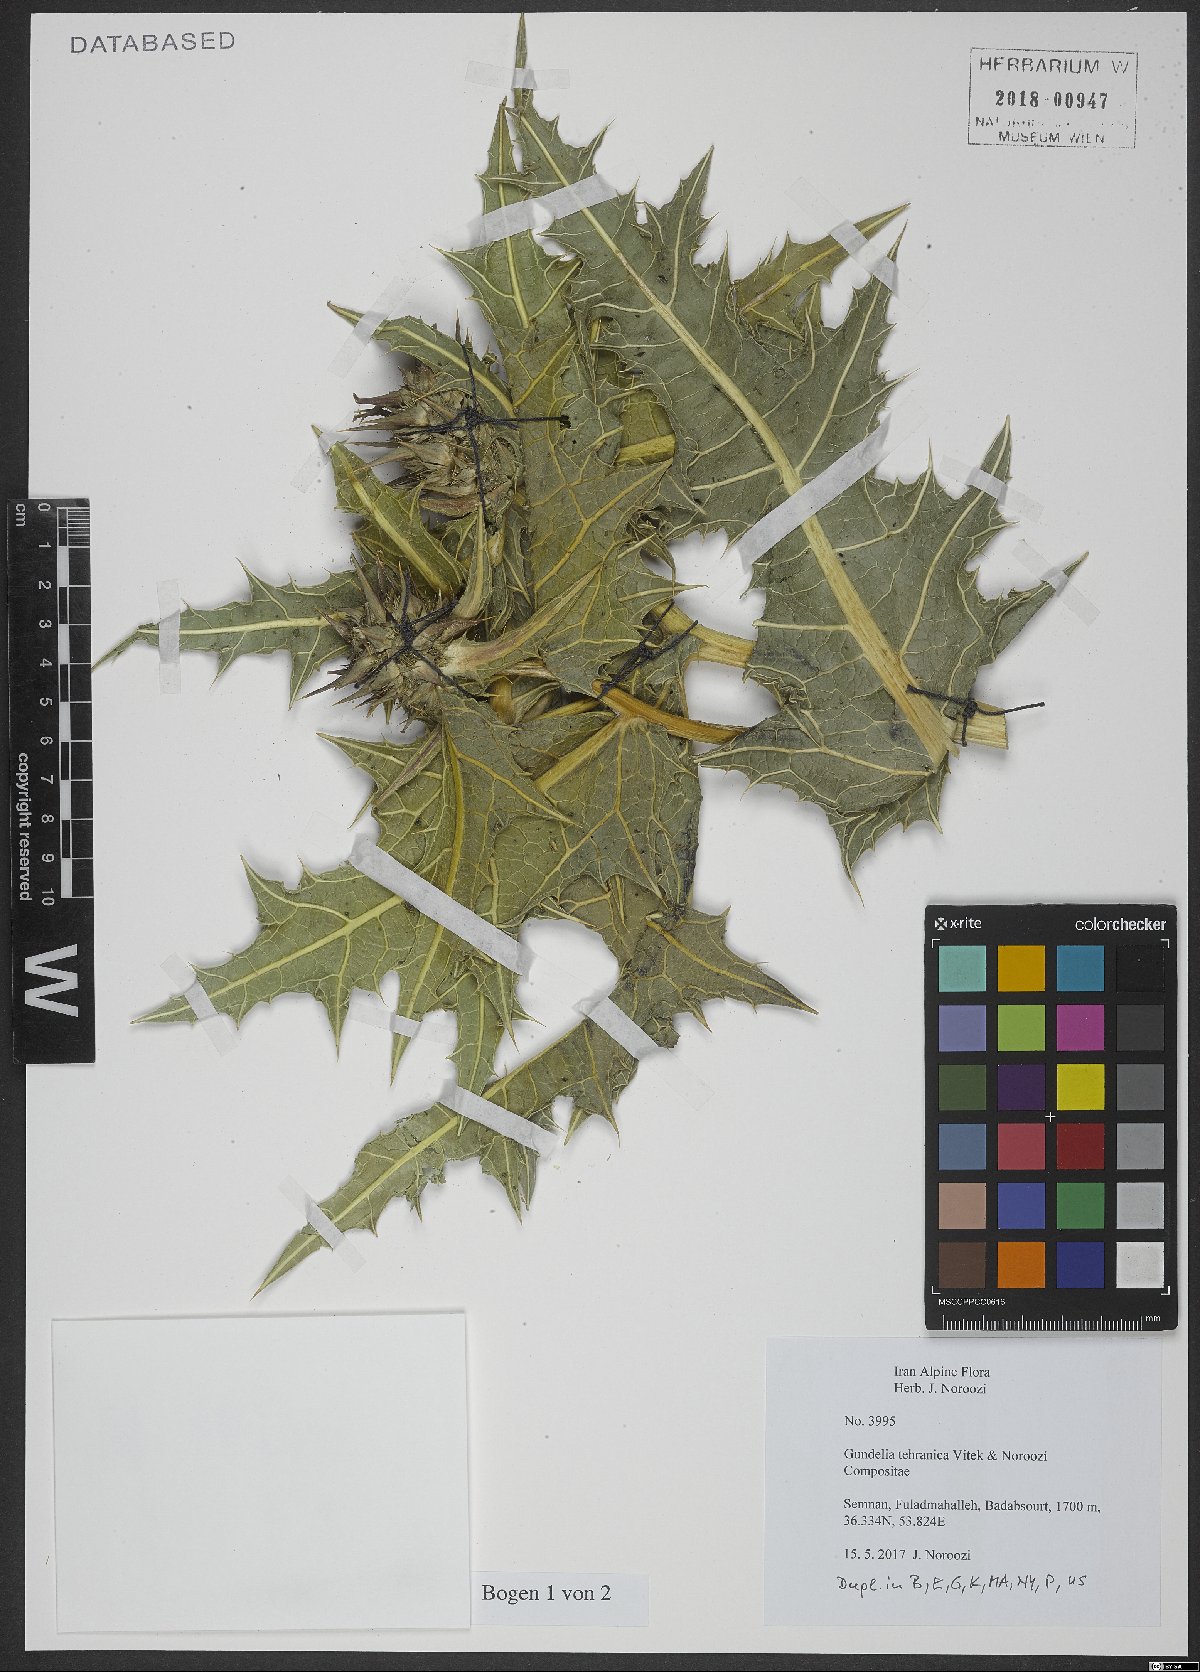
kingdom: Plantae
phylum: Tracheophyta
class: Magnoliopsida
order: Asterales
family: Asteraceae
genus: Gundelia
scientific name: Gundelia tehranica
